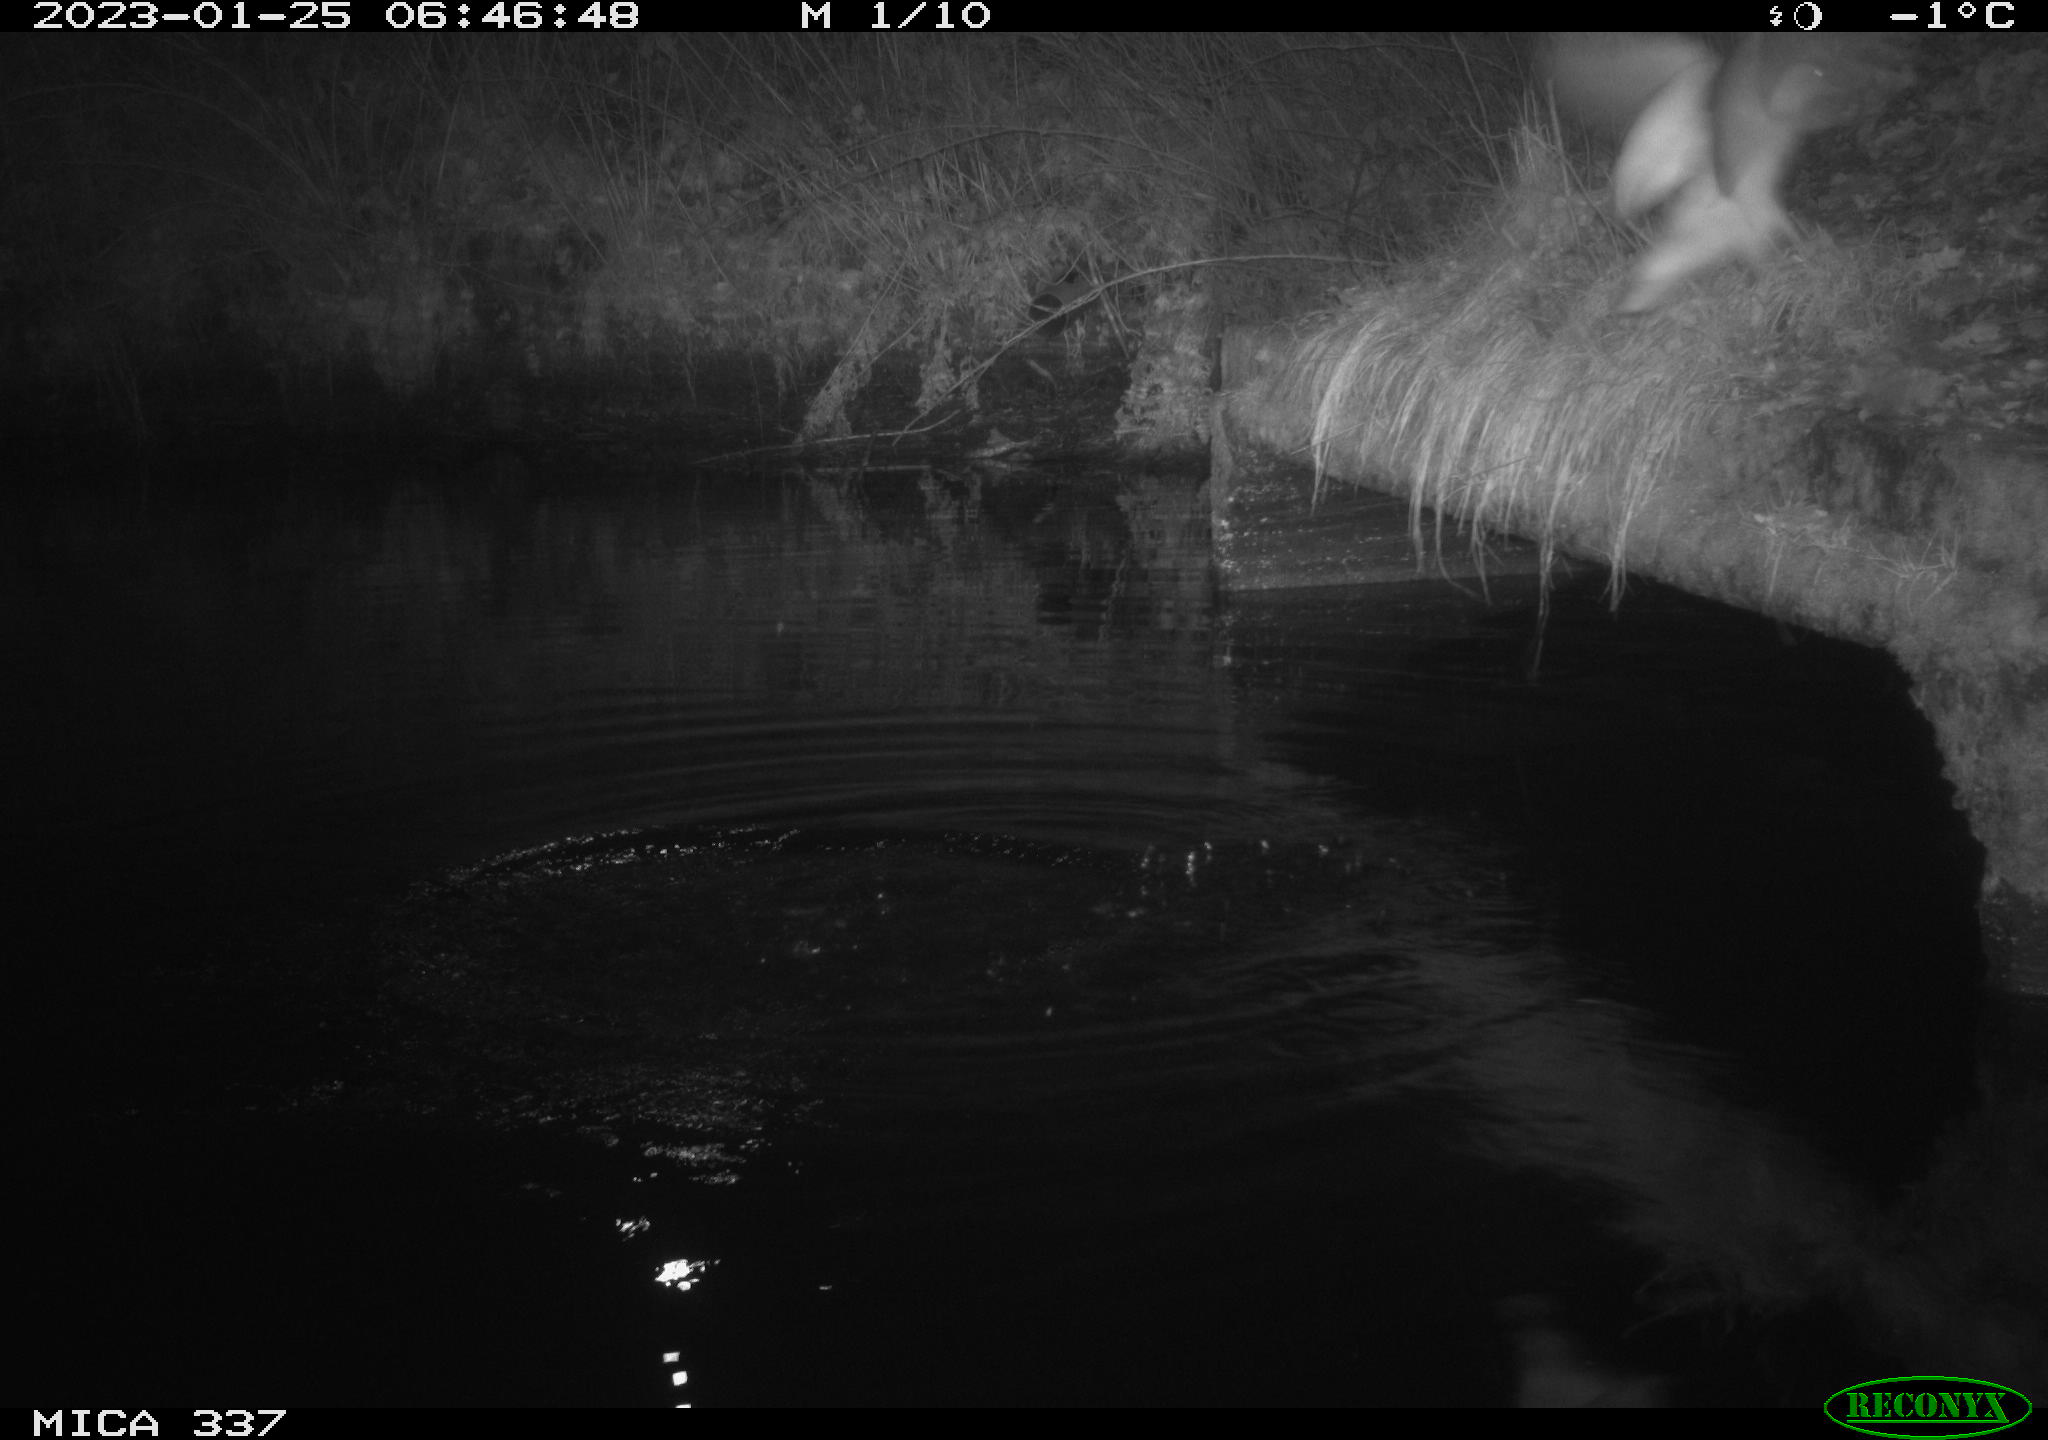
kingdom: Animalia
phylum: Chordata
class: Aves
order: Anseriformes
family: Anatidae
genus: Anas
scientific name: Anas
